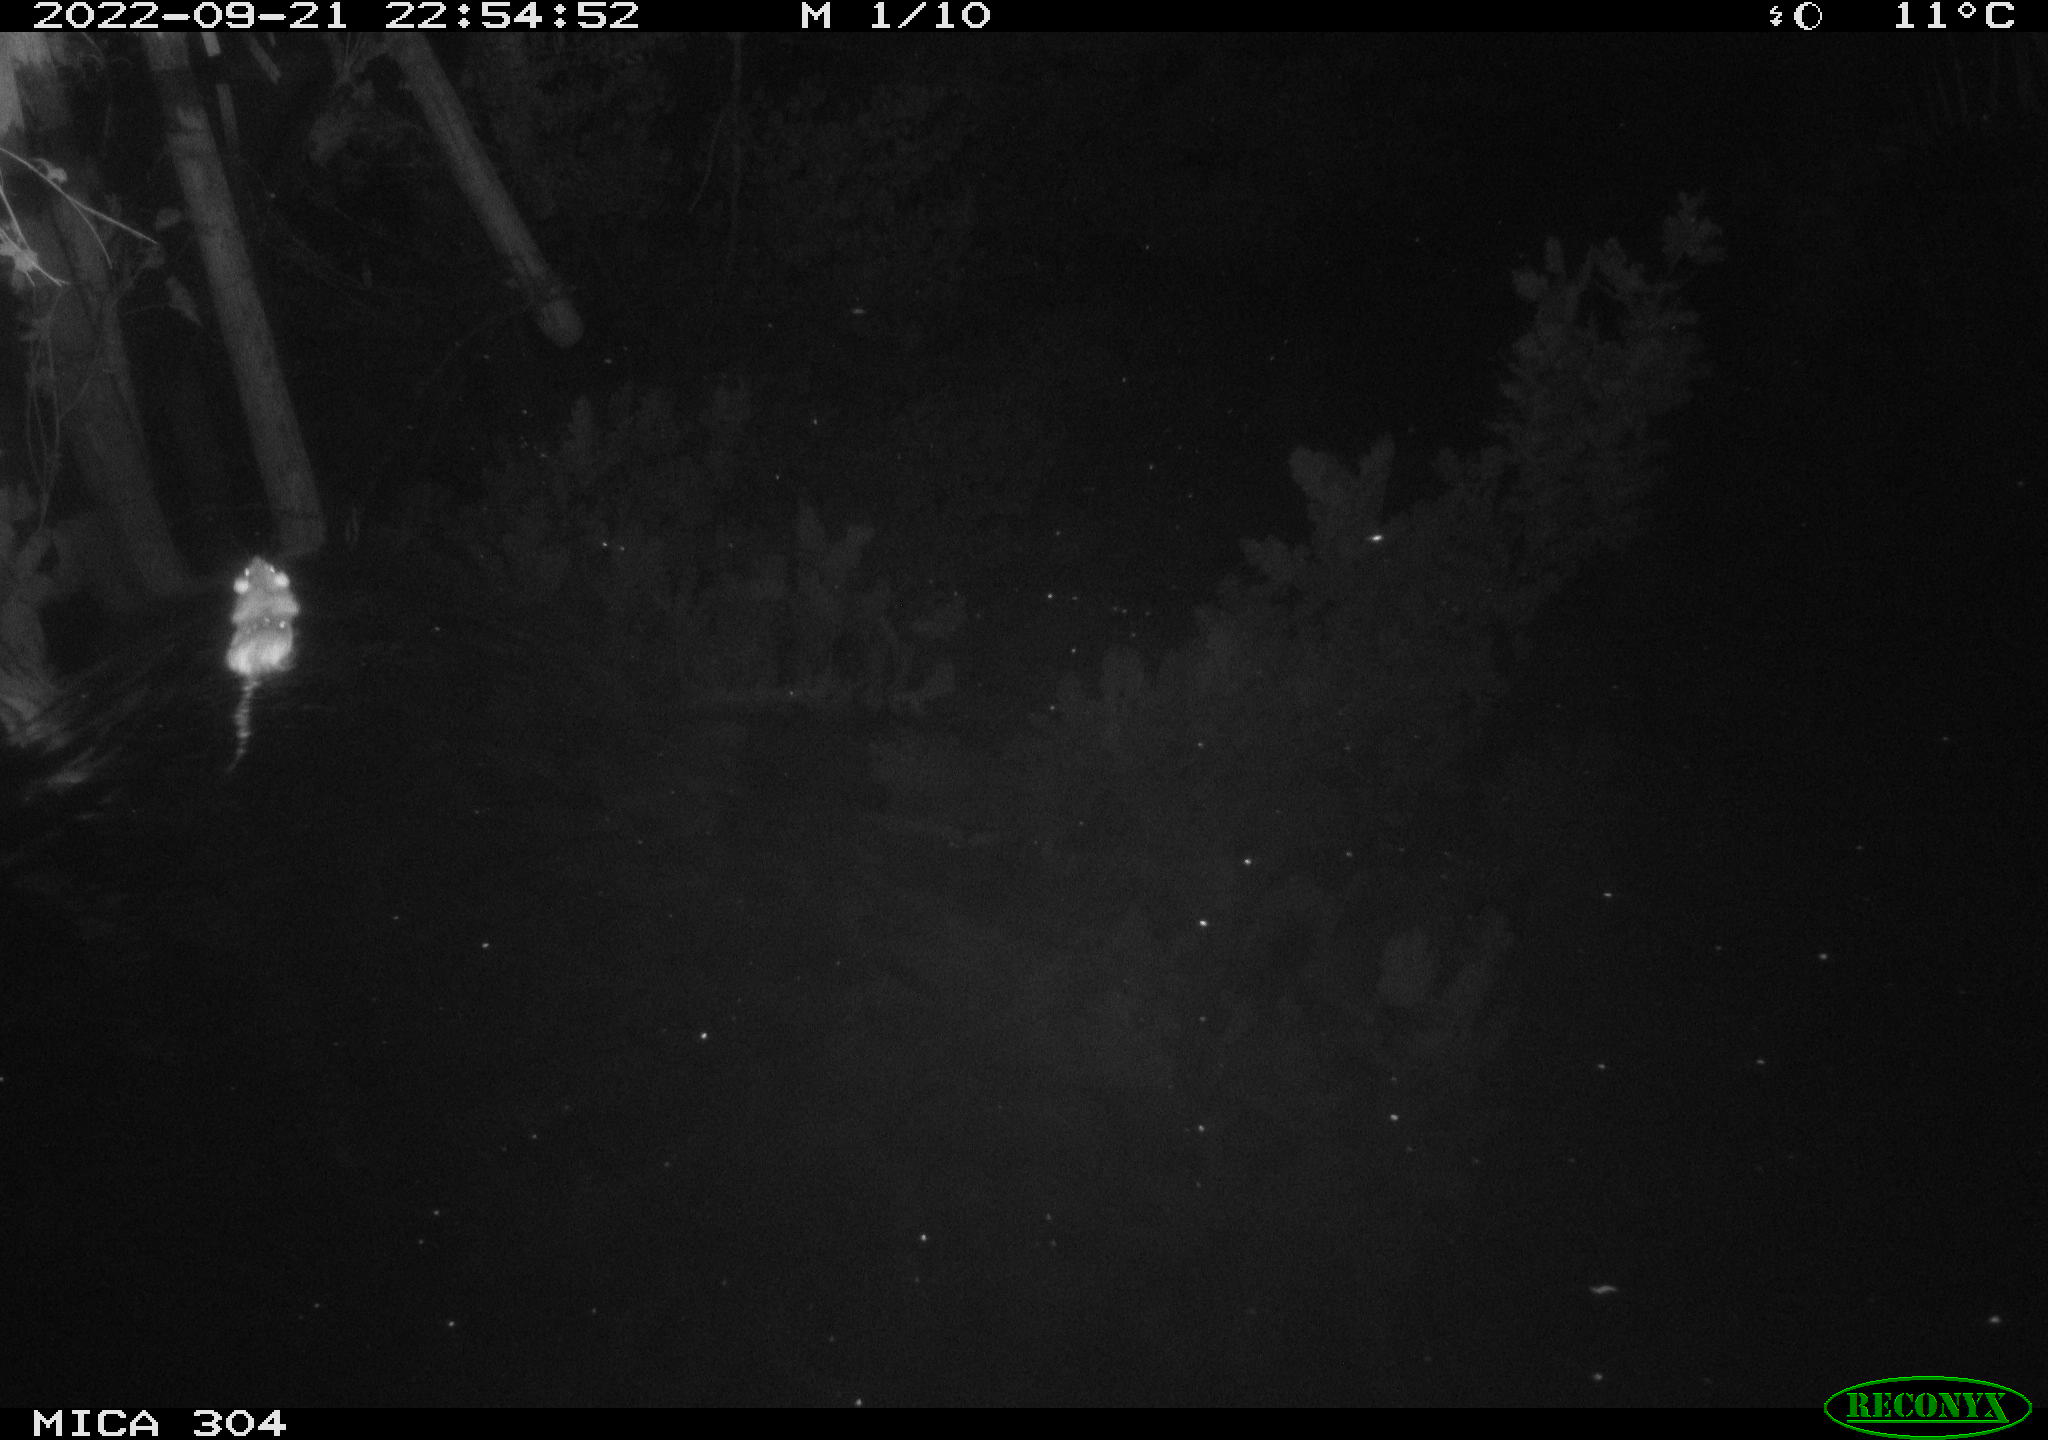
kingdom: Animalia
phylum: Chordata
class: Mammalia
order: Rodentia
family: Muridae
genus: Rattus
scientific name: Rattus norvegicus
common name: Brown rat
